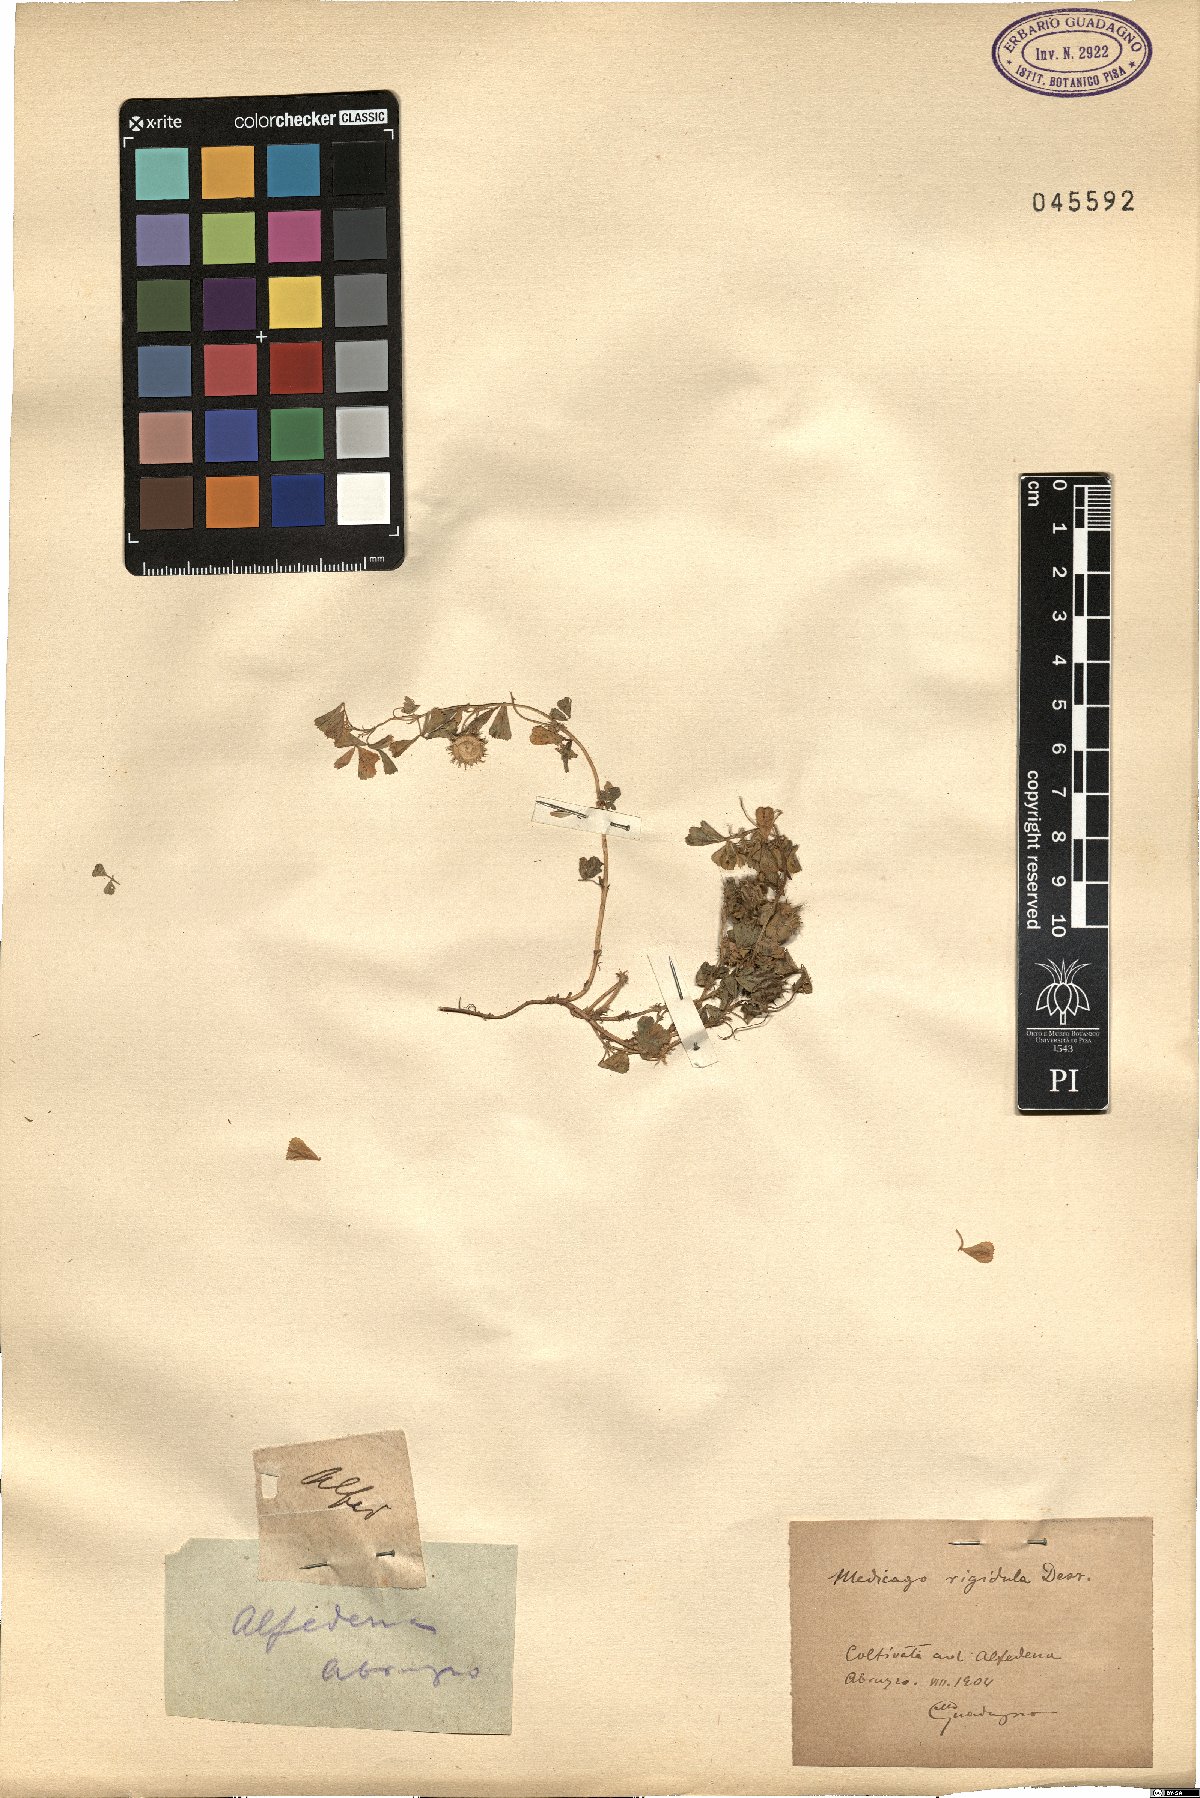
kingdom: Plantae
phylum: Tracheophyta
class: Magnoliopsida
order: Fabales
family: Fabaceae
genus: Medicago
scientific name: Medicago rigidula
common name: Tifton medic
